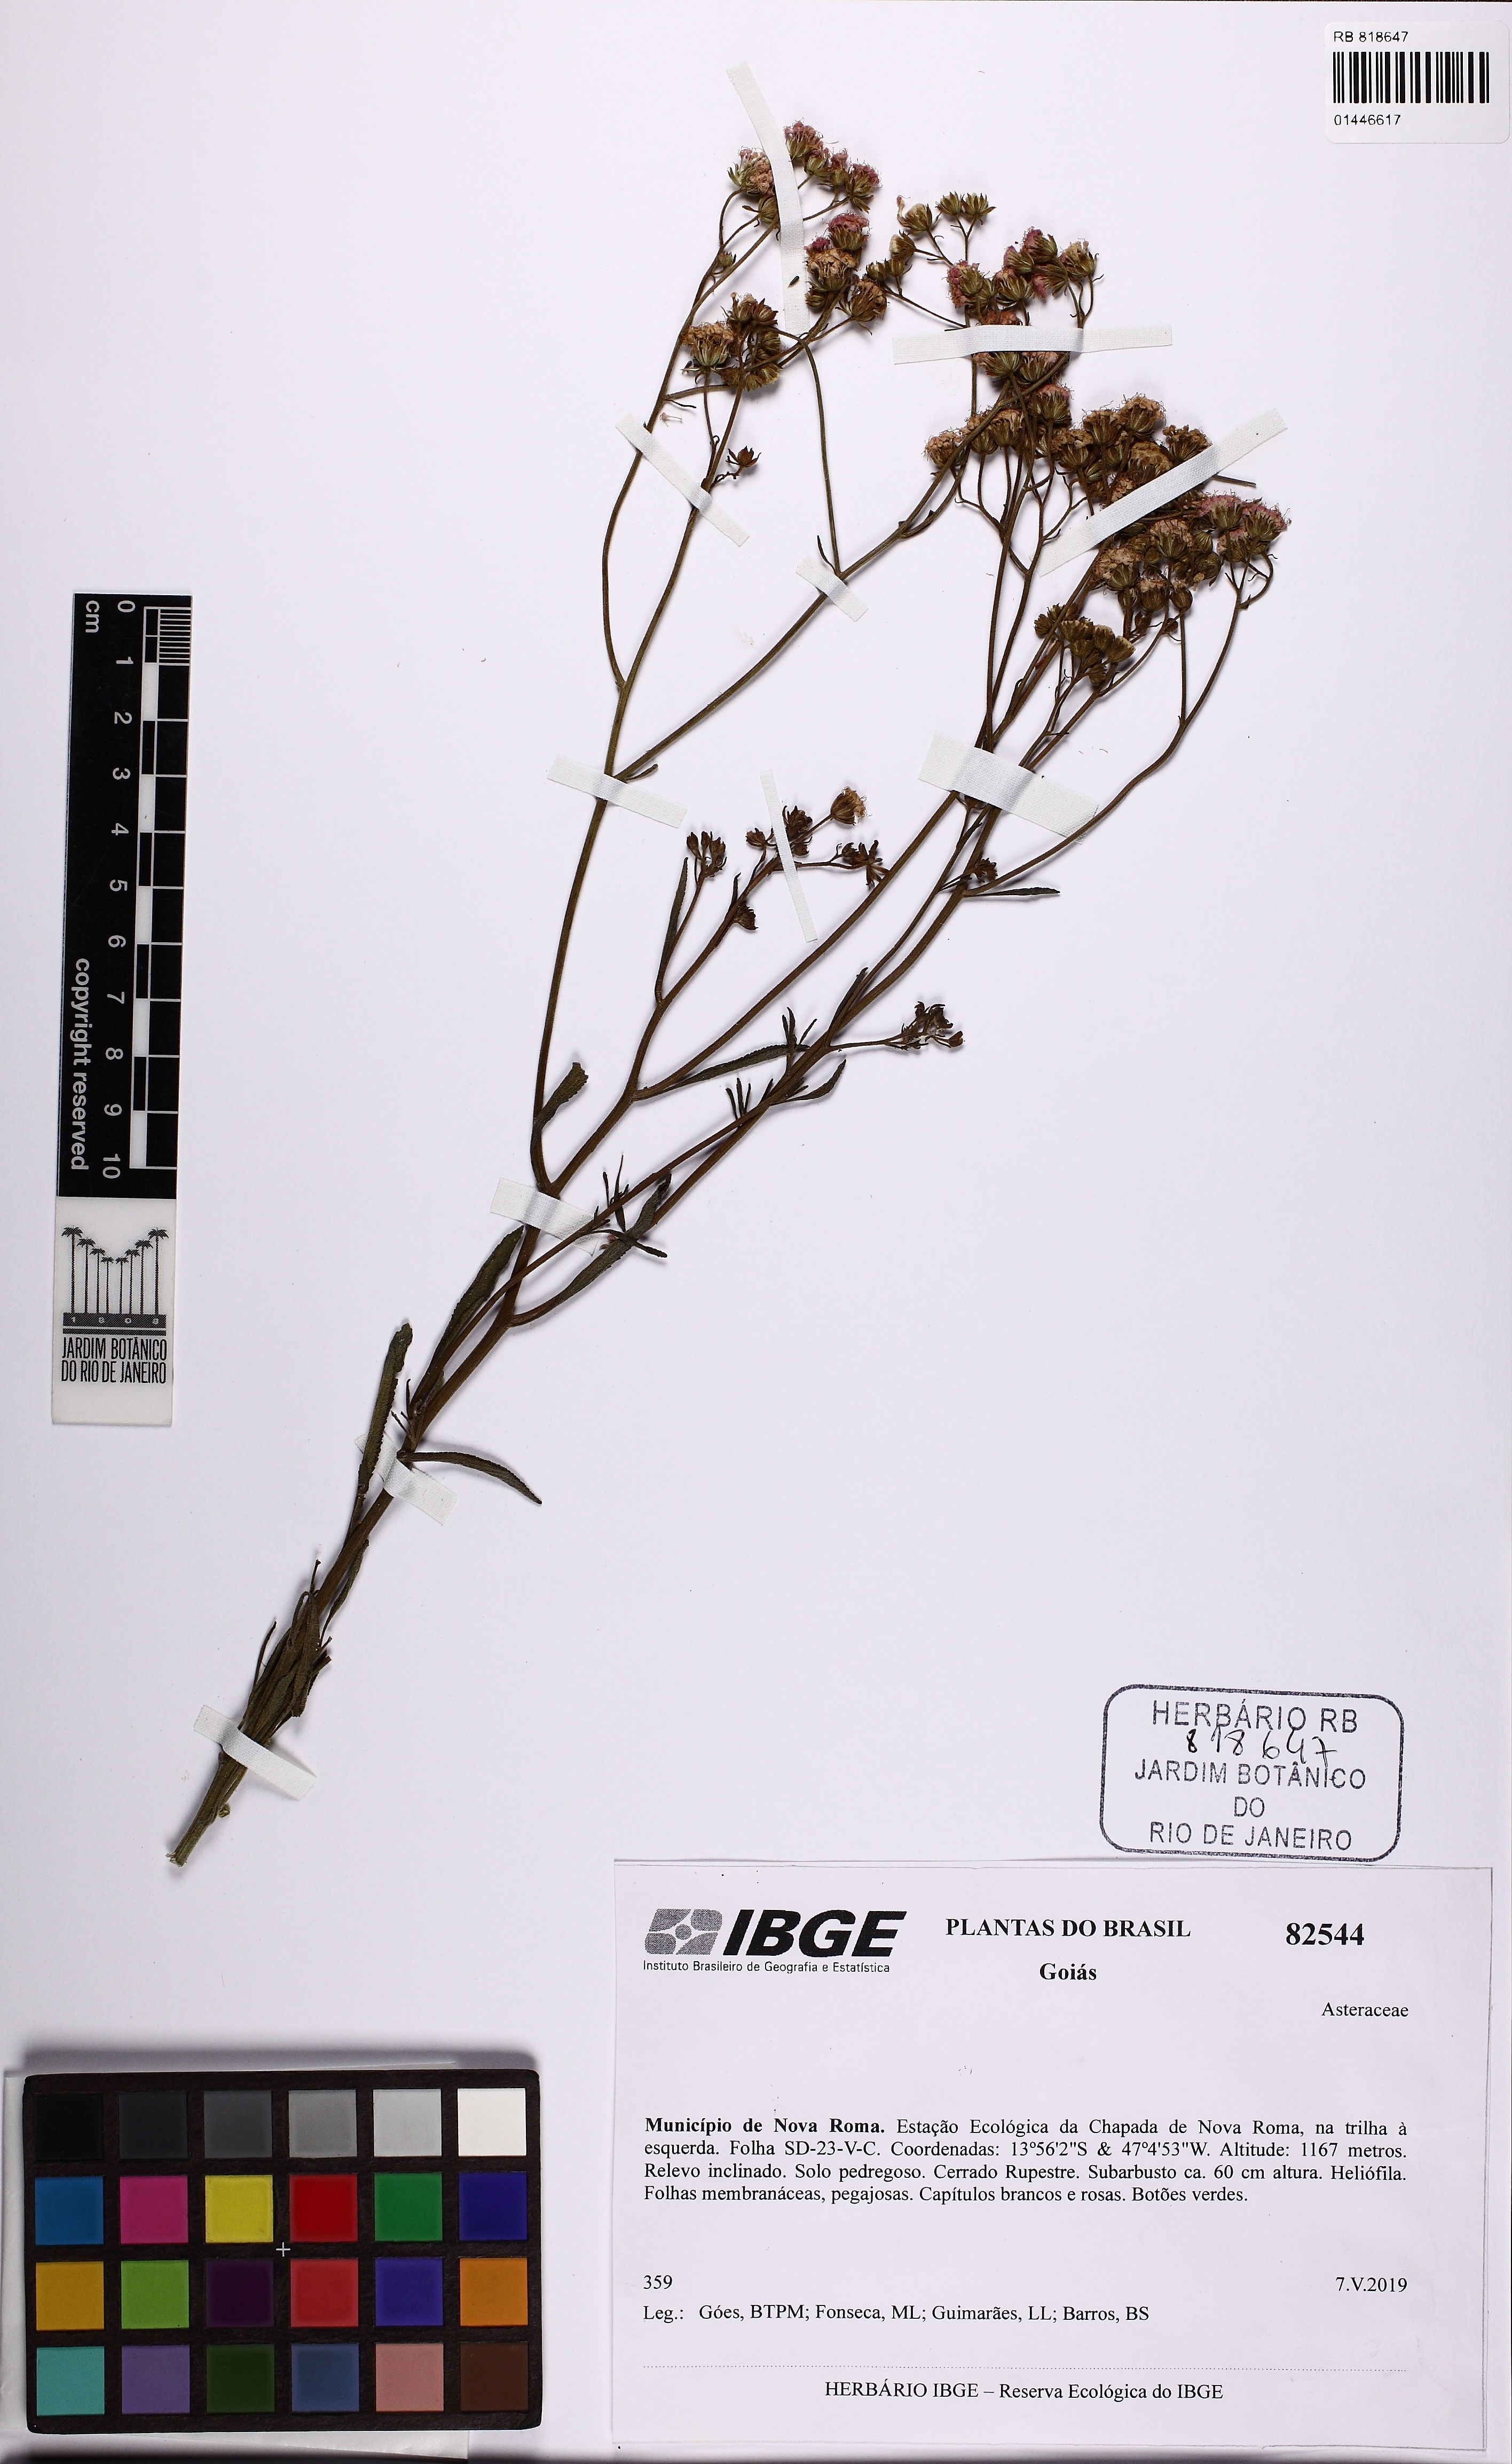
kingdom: Plantae
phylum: Tracheophyta
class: Magnoliopsida
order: Asterales
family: Asteraceae
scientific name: Asteraceae
